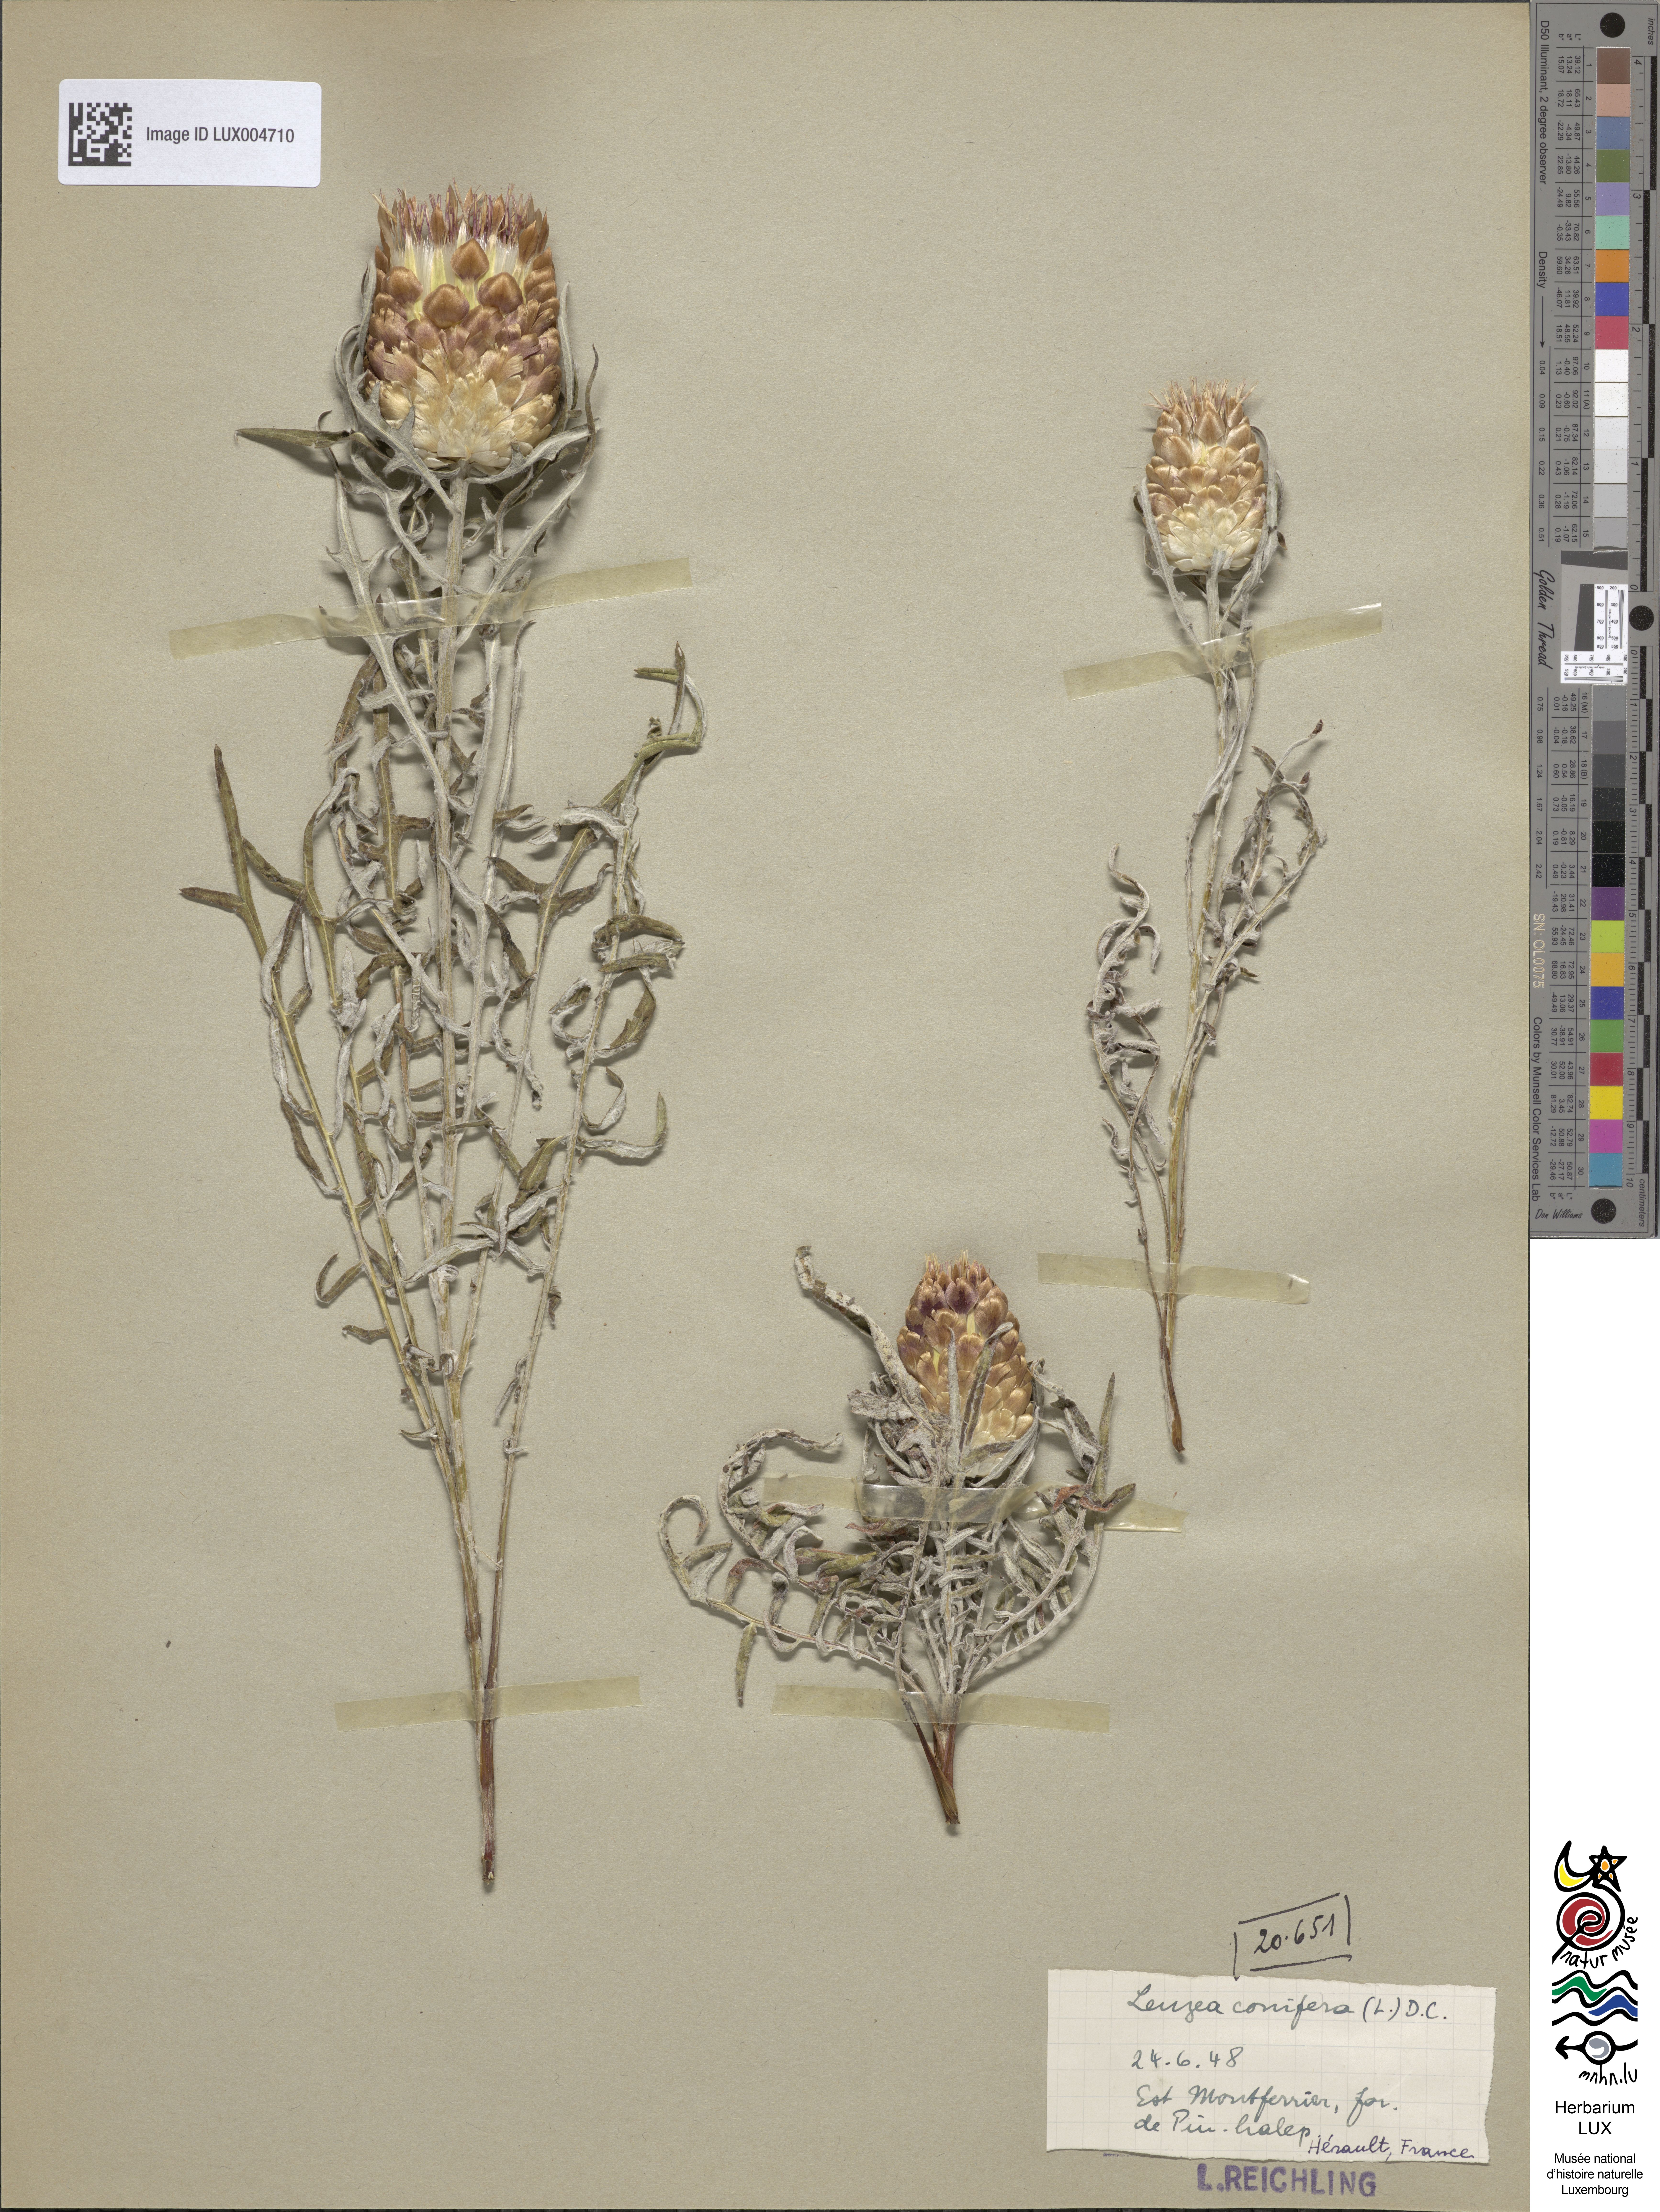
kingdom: Plantae
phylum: Tracheophyta
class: Magnoliopsida
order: Asterales
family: Asteraceae
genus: Leuzea
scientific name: Leuzea conifera
